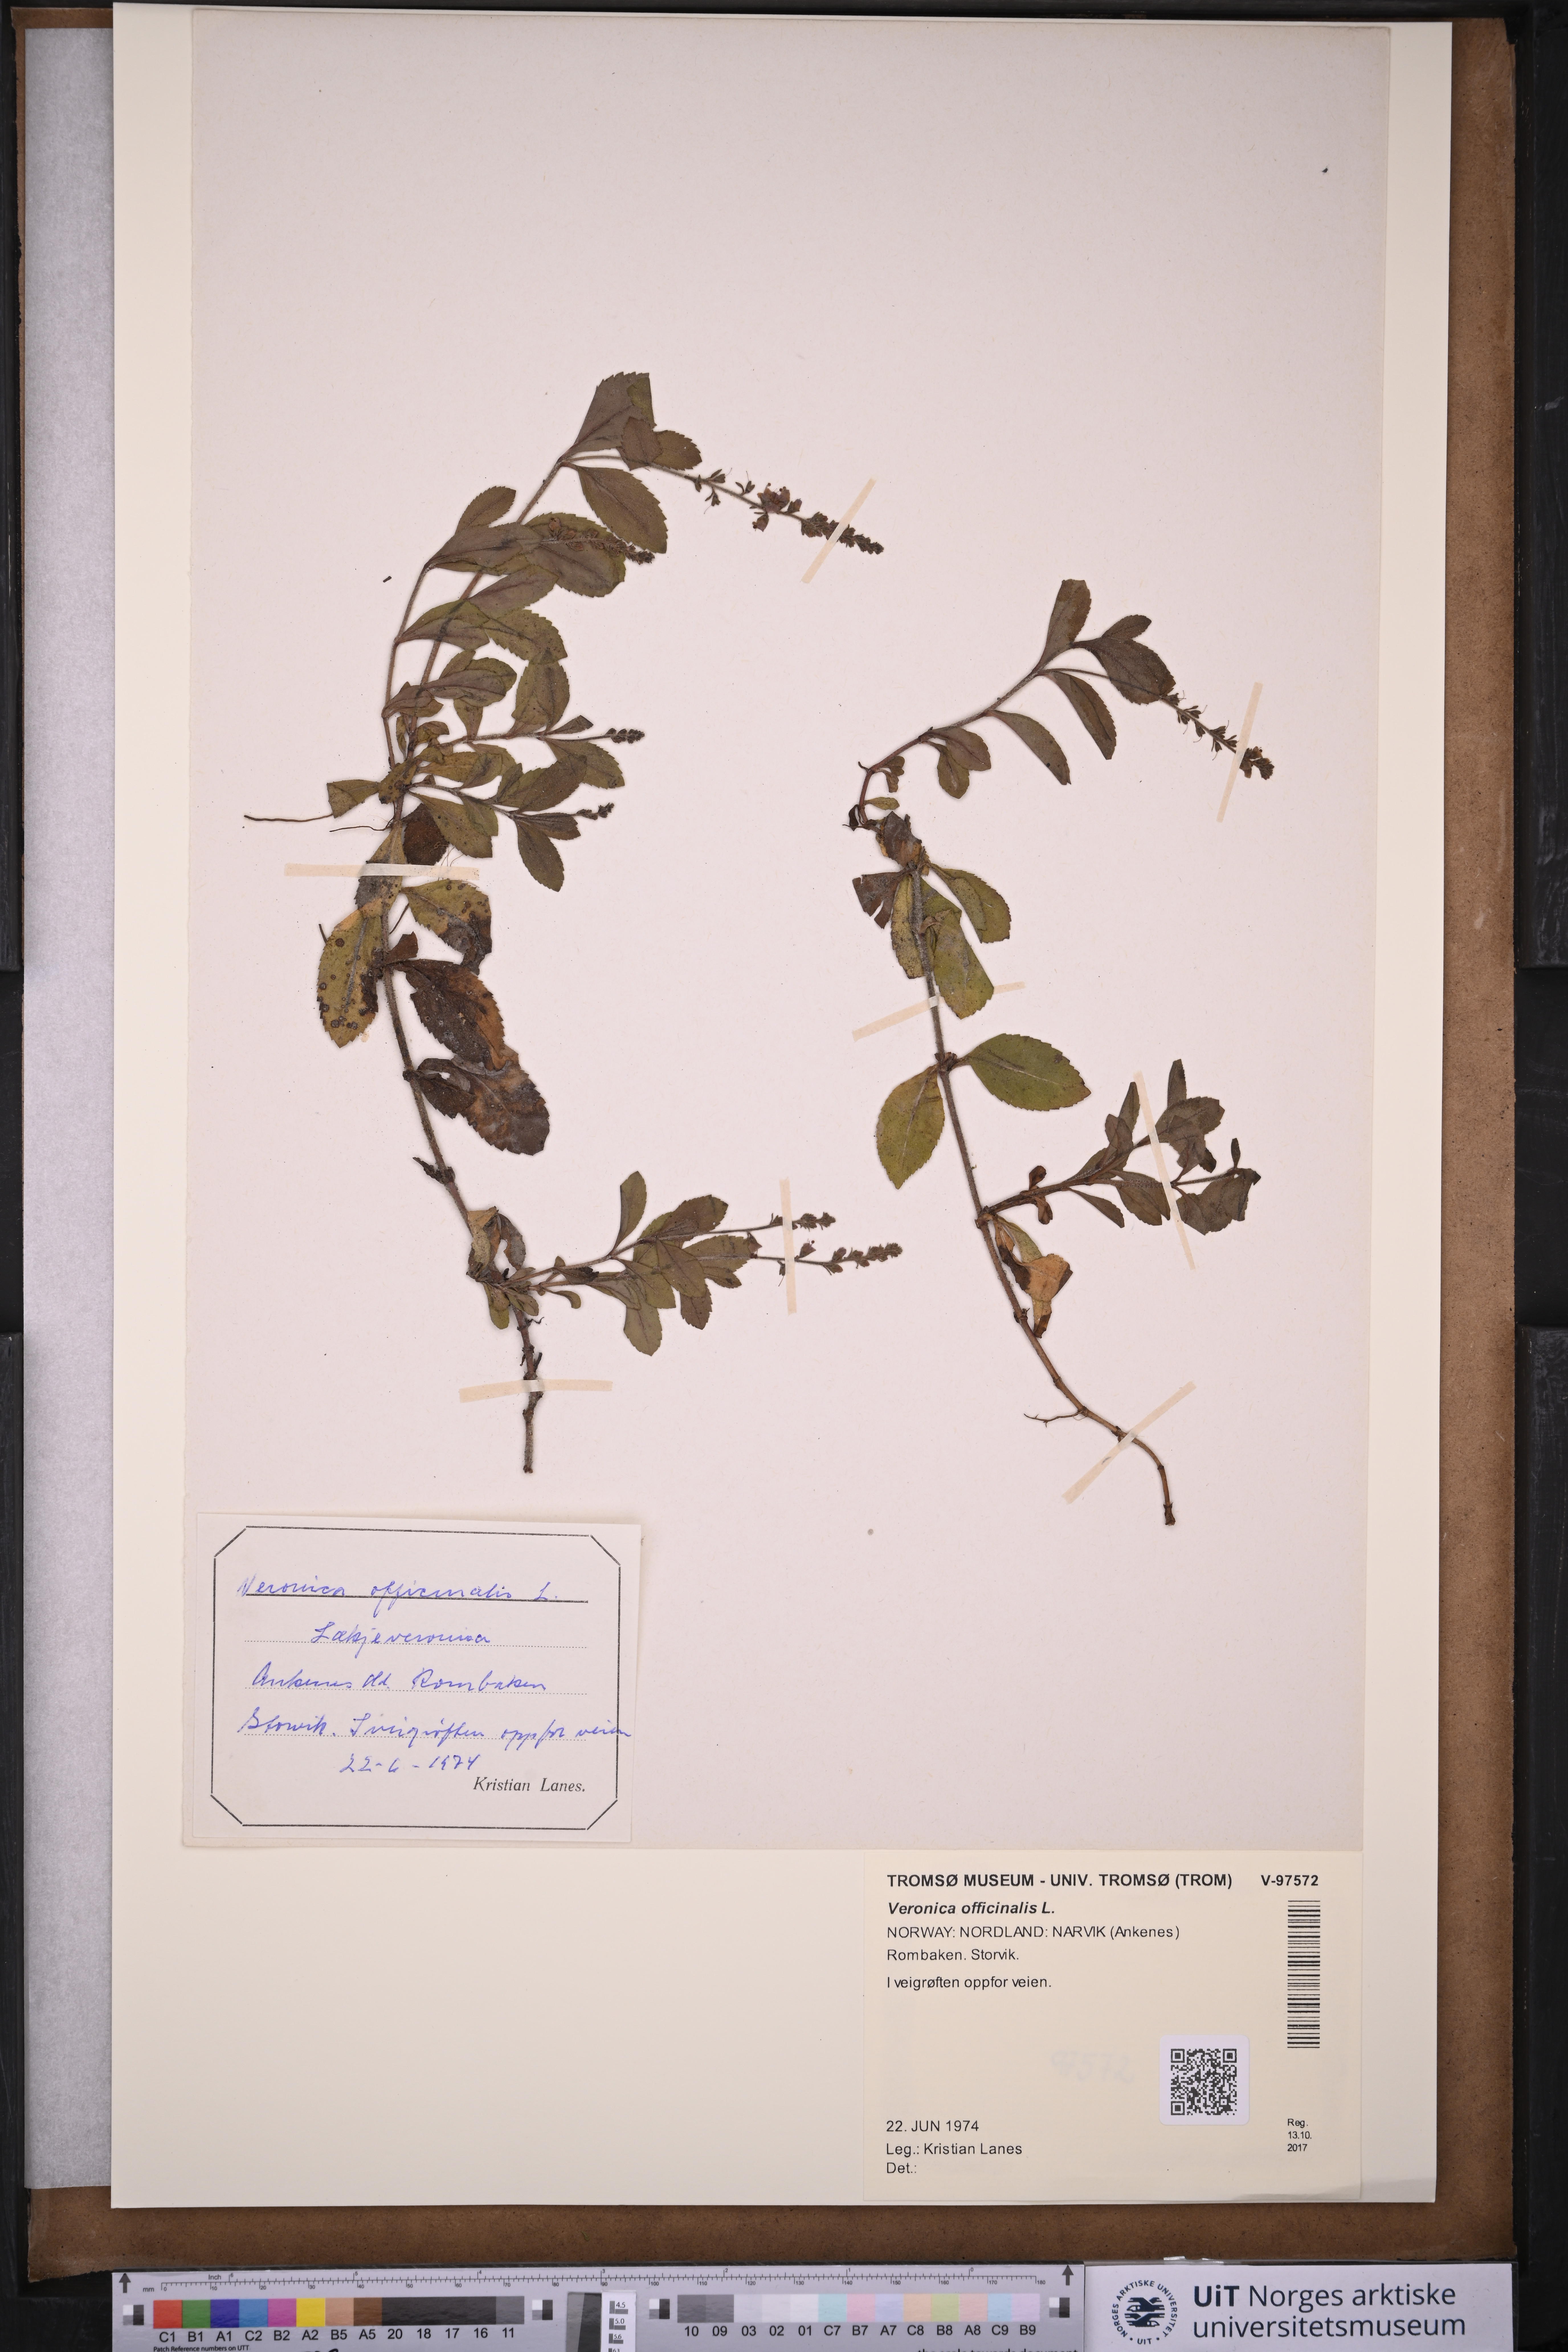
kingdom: Plantae
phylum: Tracheophyta
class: Magnoliopsida
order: Lamiales
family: Plantaginaceae
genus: Veronica
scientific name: Veronica officinalis
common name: Common speedwell
